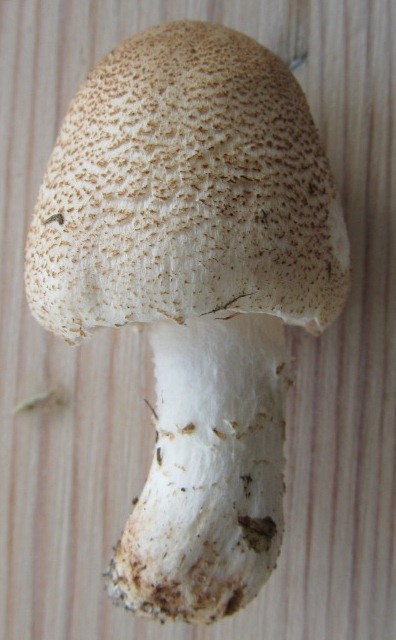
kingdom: Fungi
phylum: Basidiomycota
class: Agaricomycetes
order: Agaricales
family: Agaricaceae
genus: Lepiota
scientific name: Lepiota subgracilis
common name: elegant parasolhat
